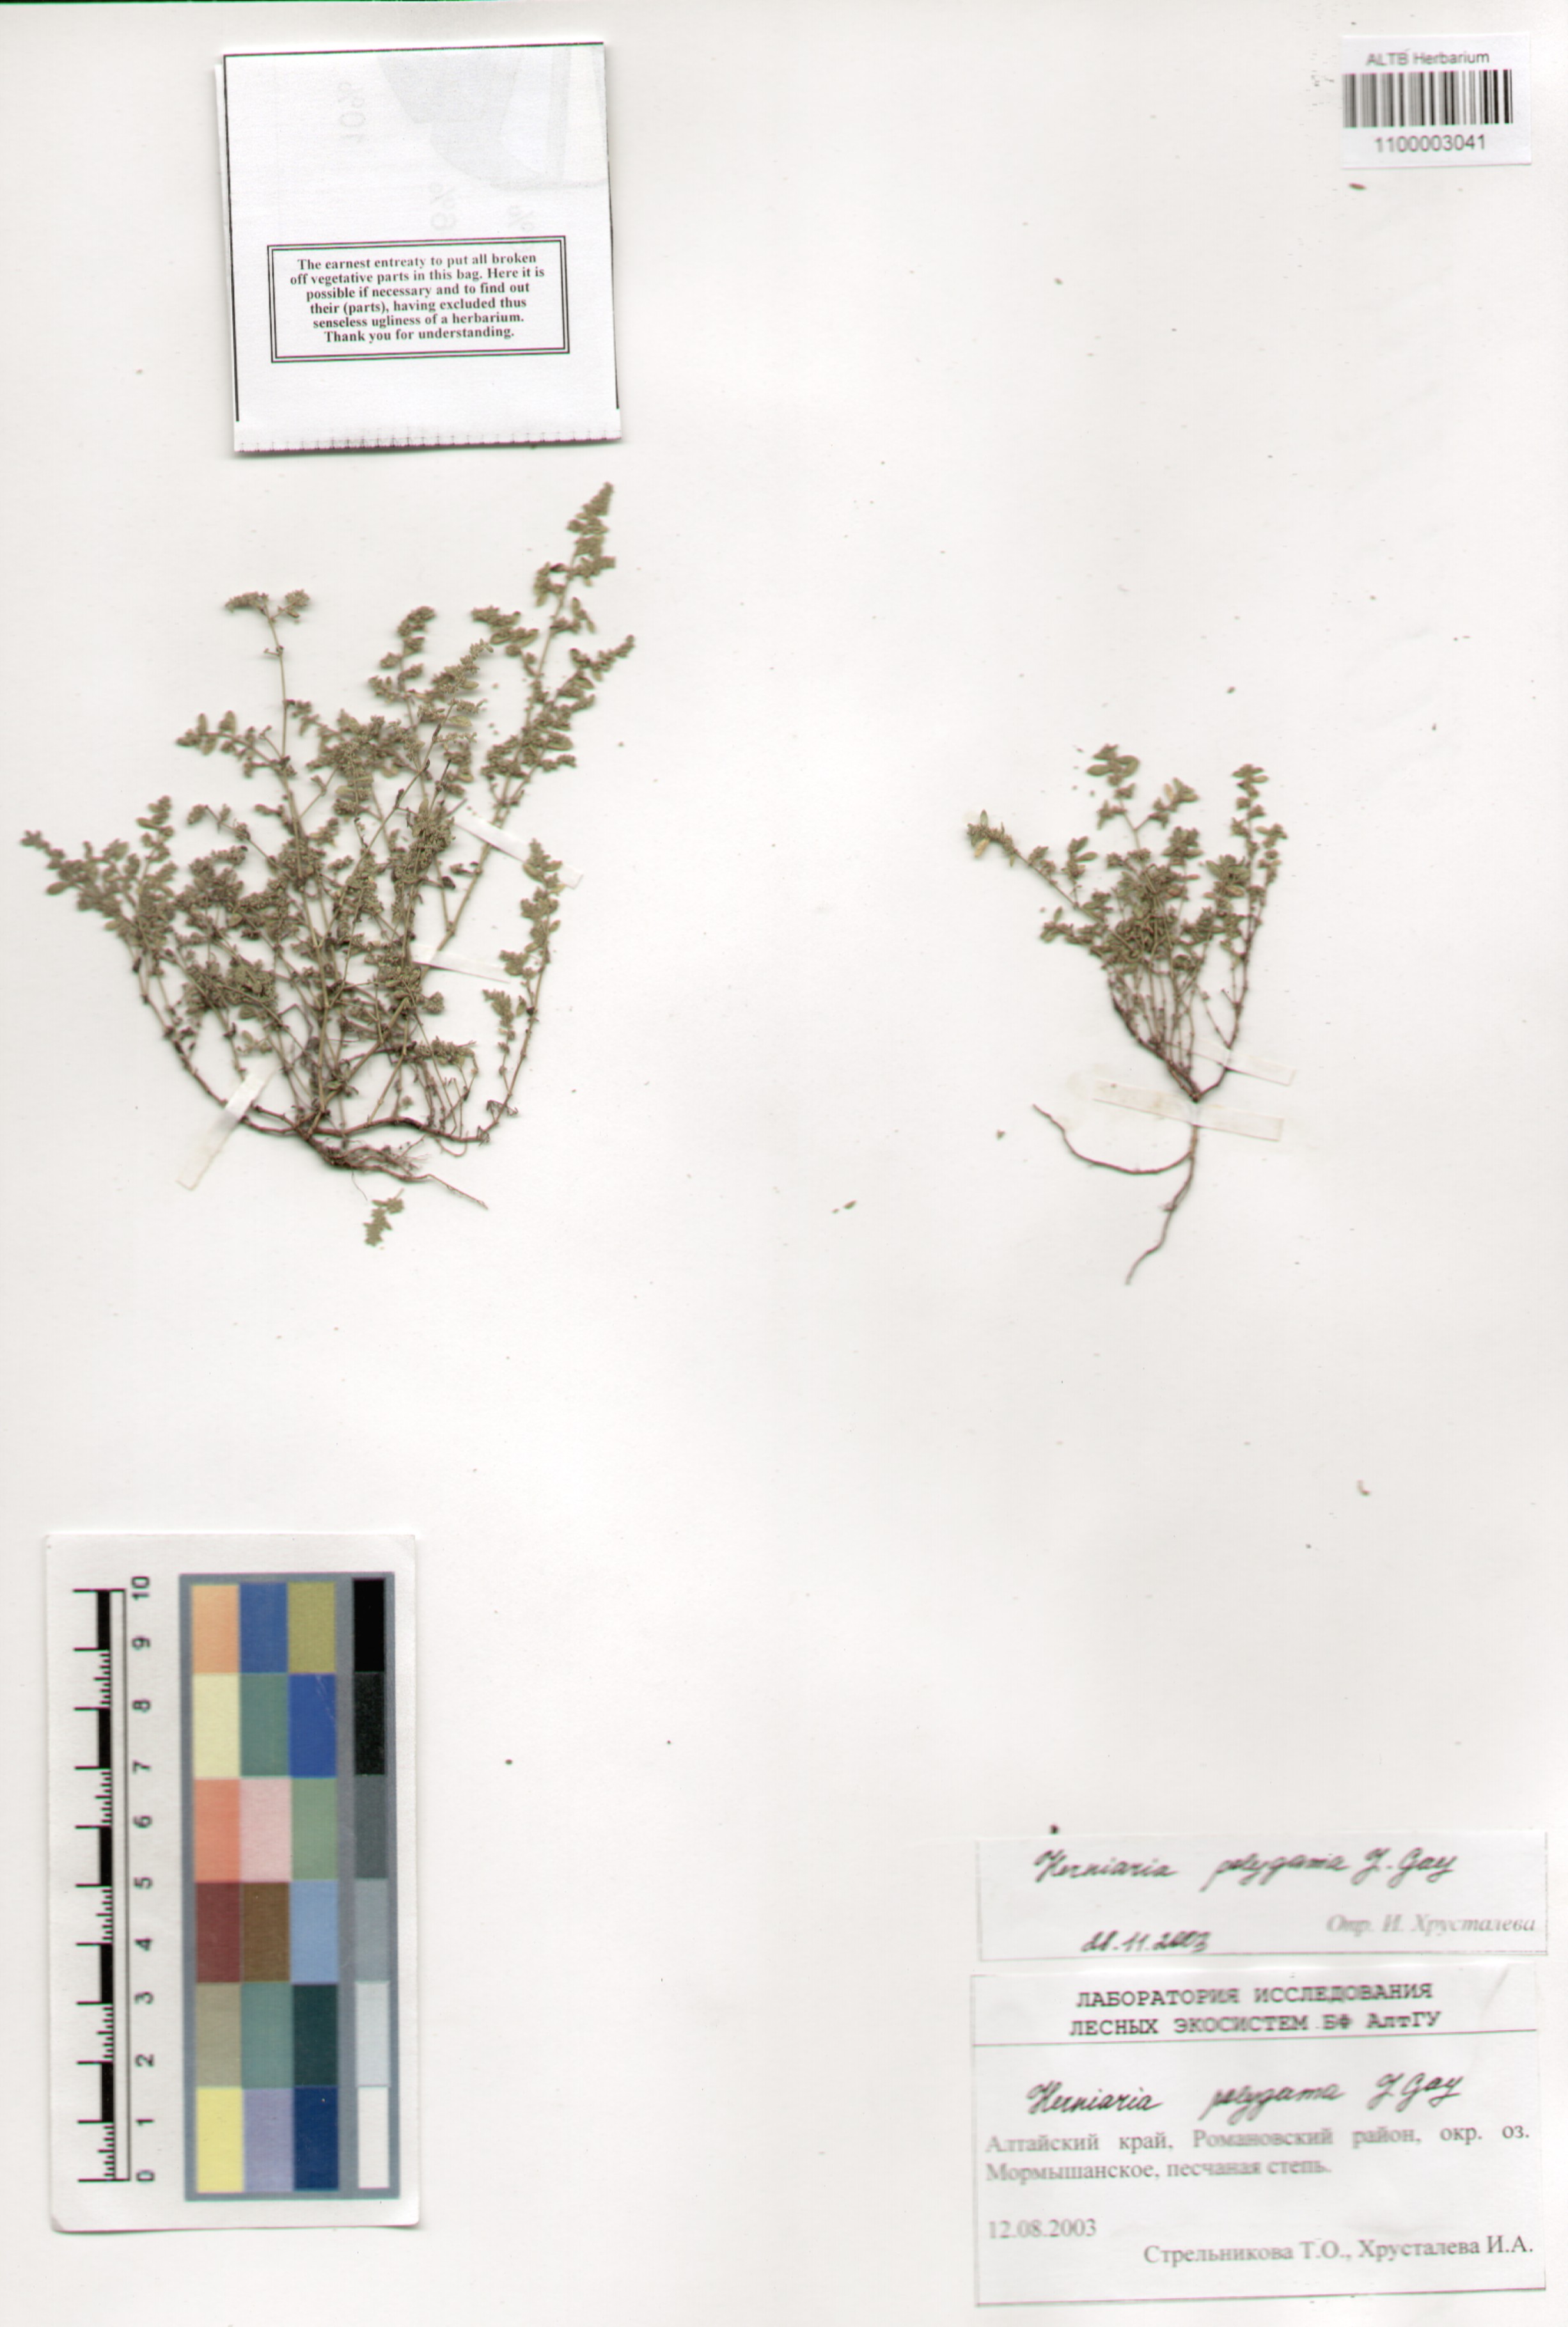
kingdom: Plantae
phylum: Tracheophyta
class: Magnoliopsida
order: Caryophyllales
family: Caryophyllaceae
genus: Herniaria
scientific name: Herniaria polygama
